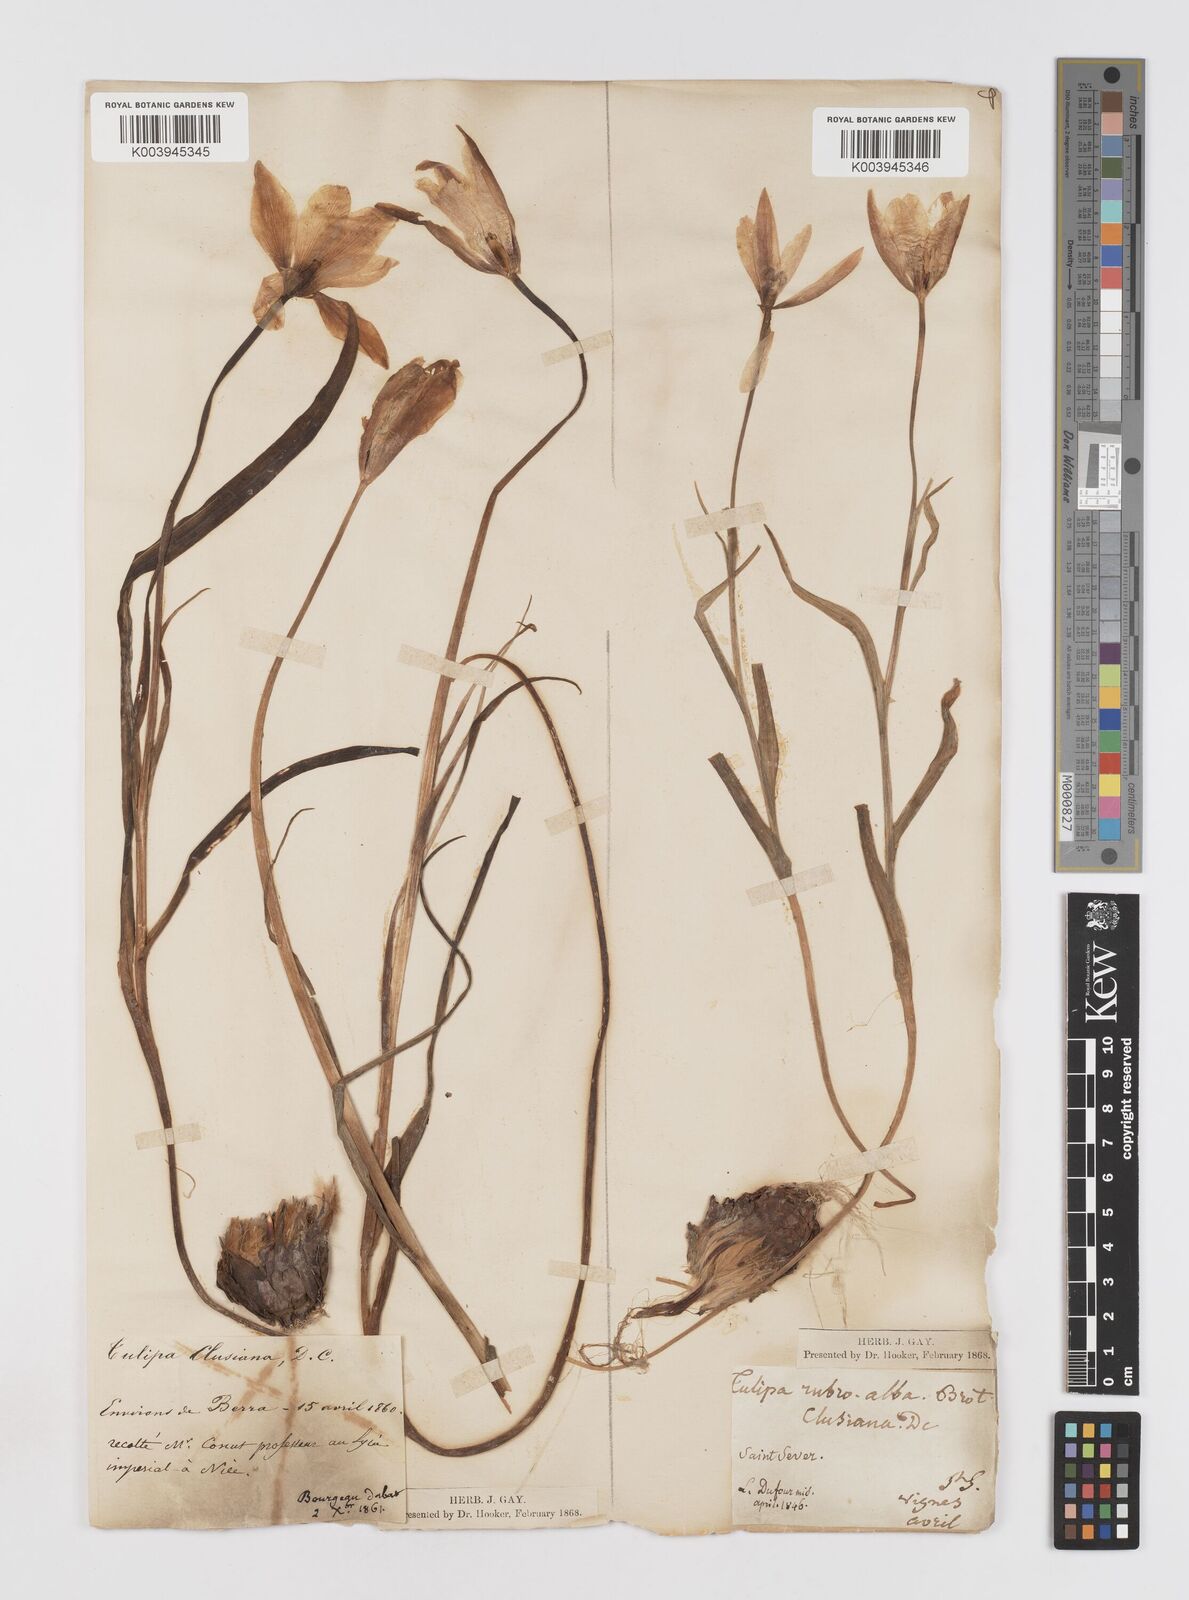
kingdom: Plantae
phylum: Tracheophyta
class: Liliopsida
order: Liliales
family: Liliaceae
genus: Tulipa
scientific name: Tulipa clusiana
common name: Lady tulip
